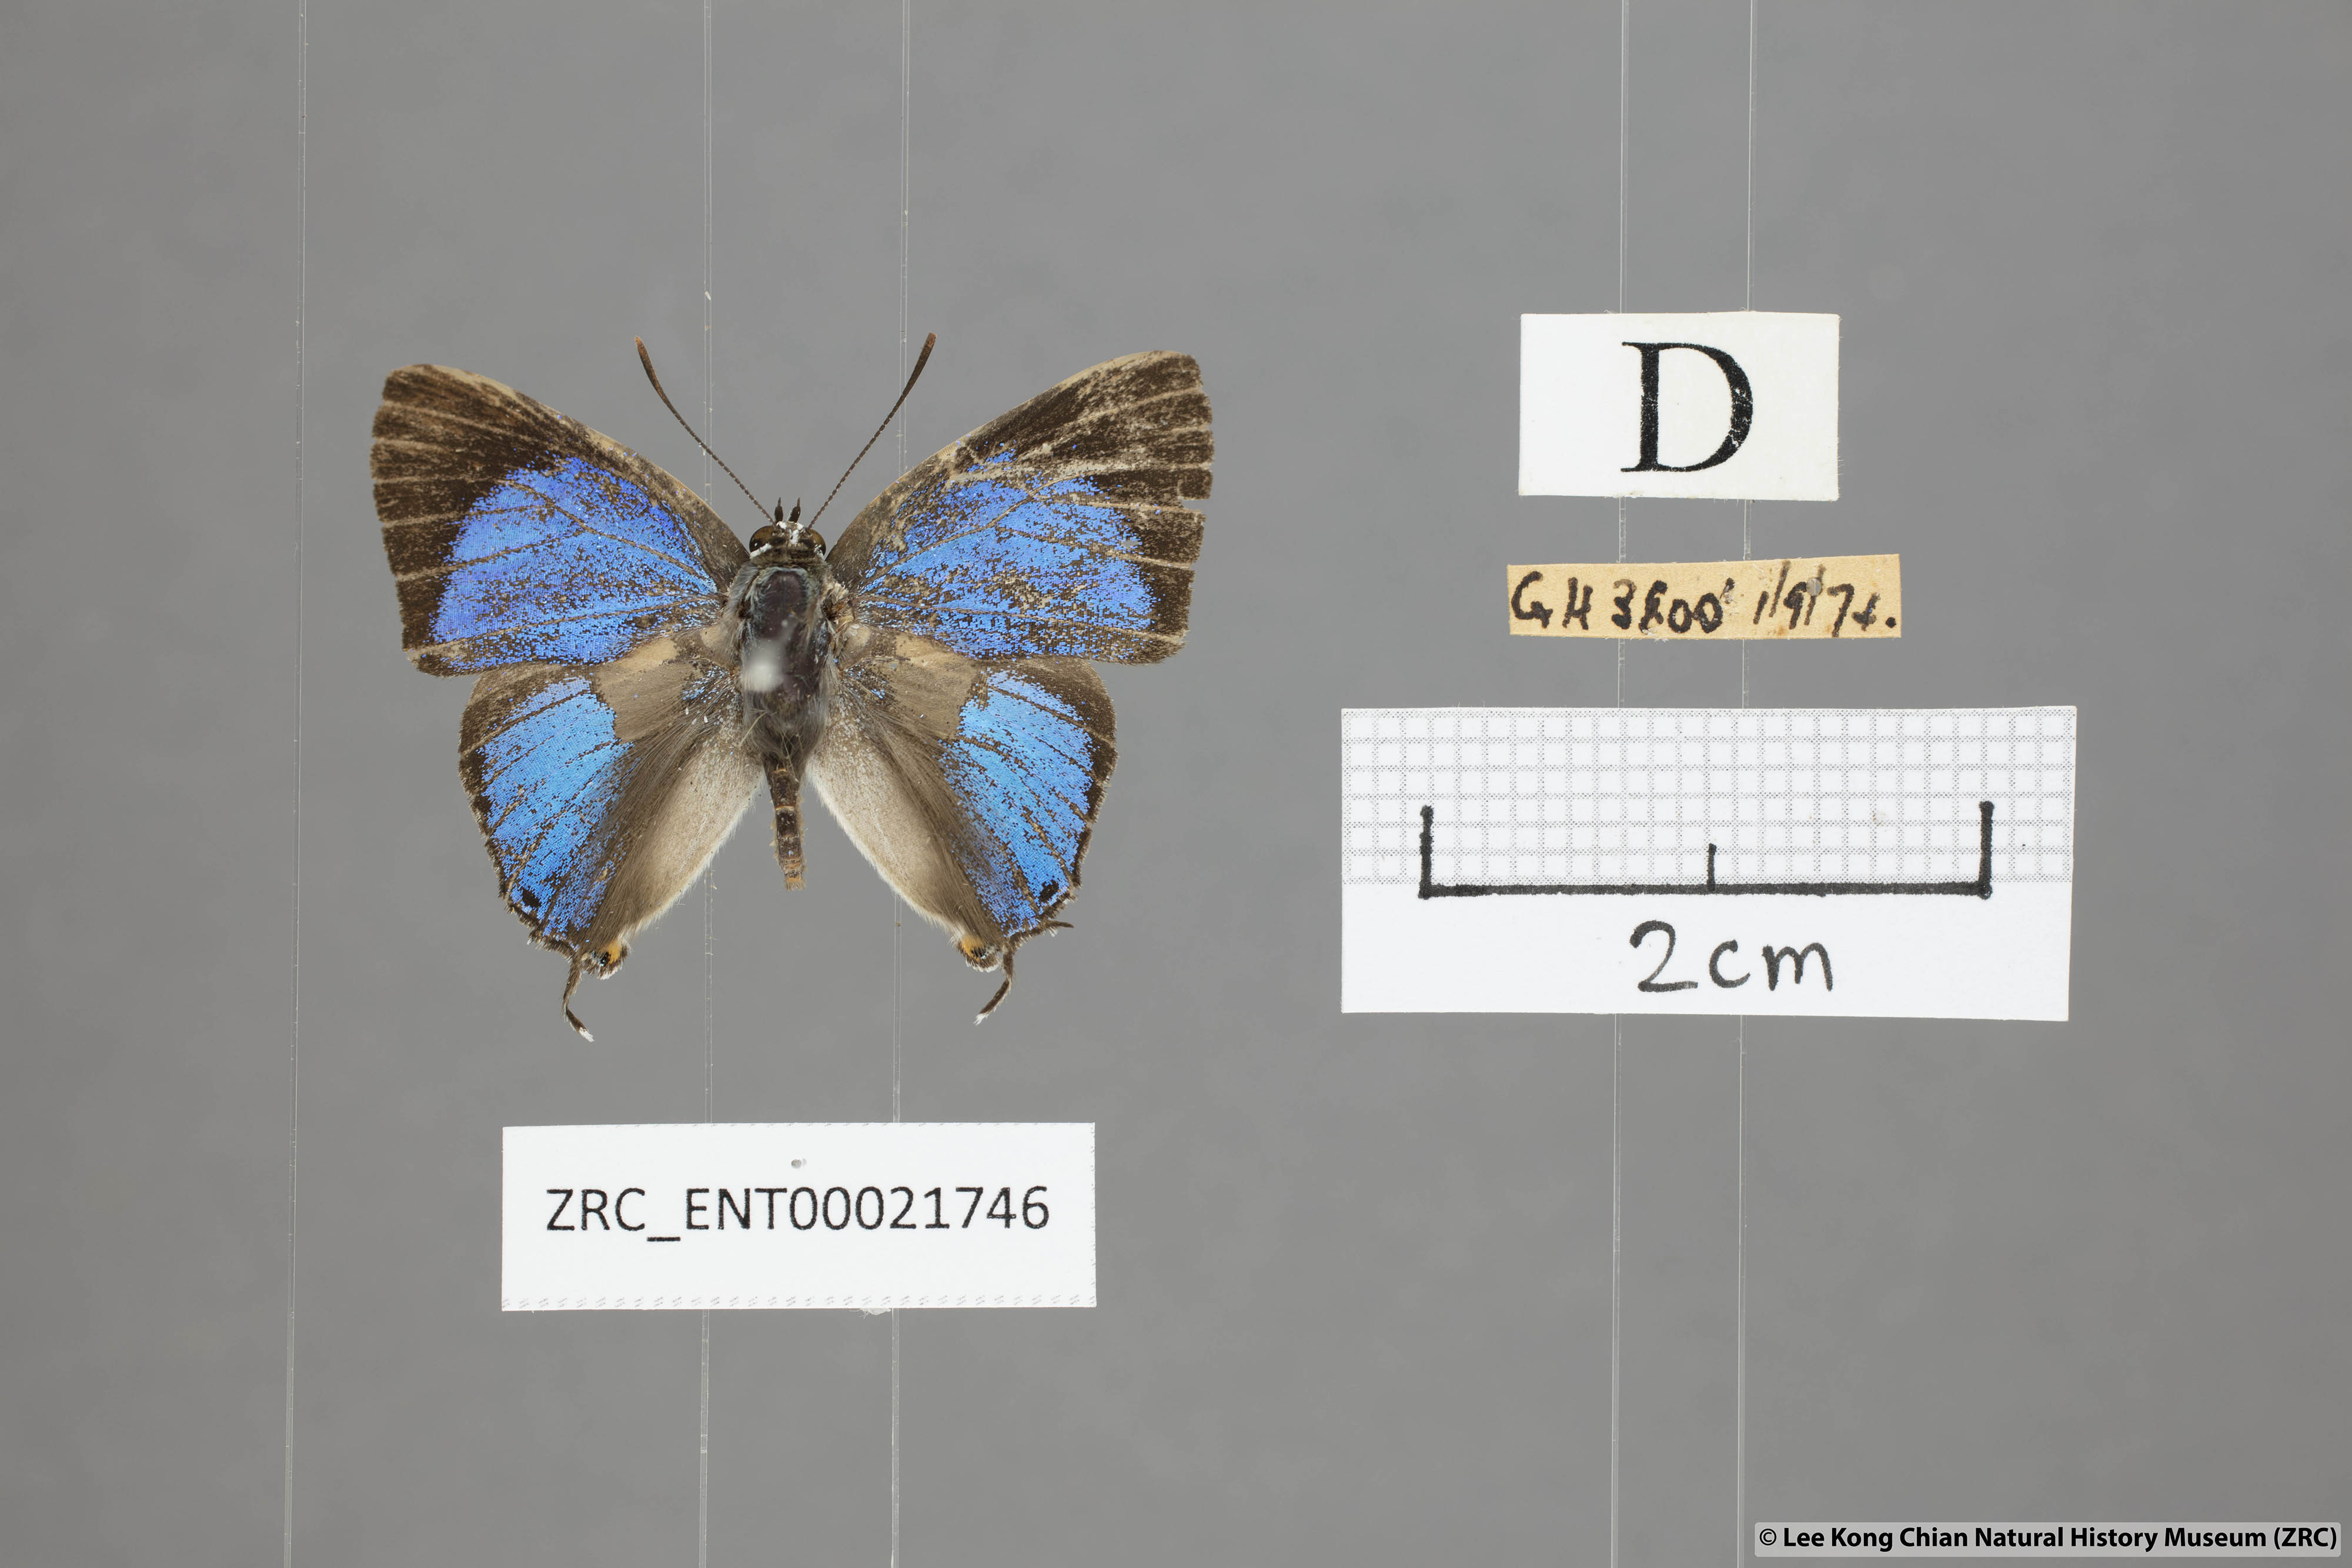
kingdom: Animalia
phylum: Arthropoda
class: Insecta
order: Lepidoptera
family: Lycaenidae
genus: Pratapa
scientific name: Pratapa
